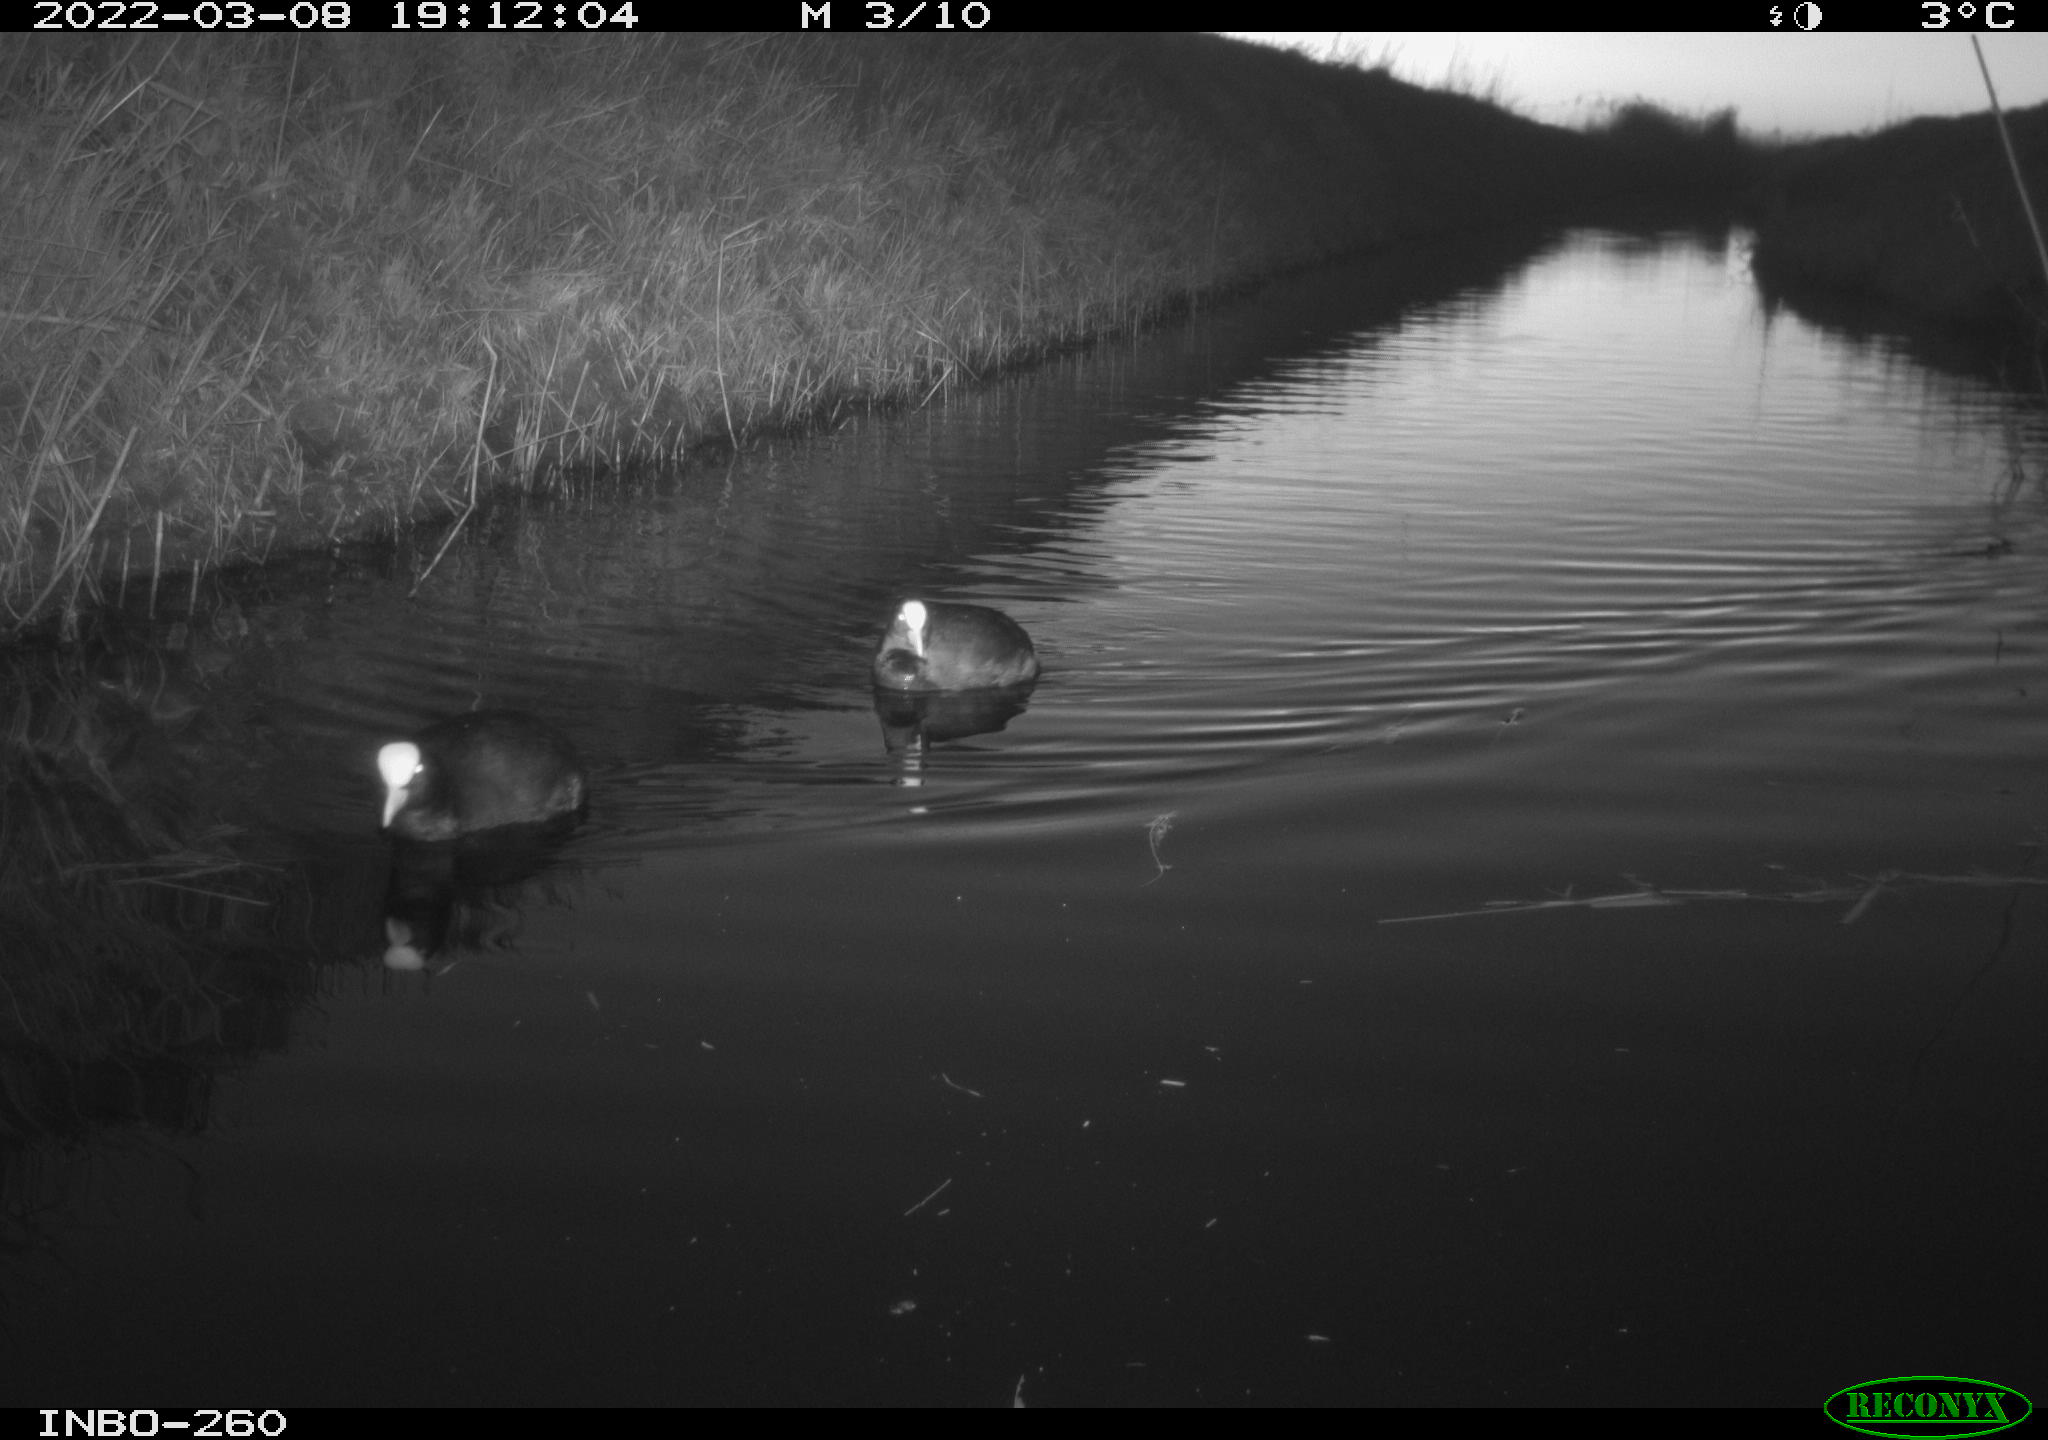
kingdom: Animalia
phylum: Chordata
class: Aves
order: Gruiformes
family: Rallidae
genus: Fulica
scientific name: Fulica atra
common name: Eurasian coot
